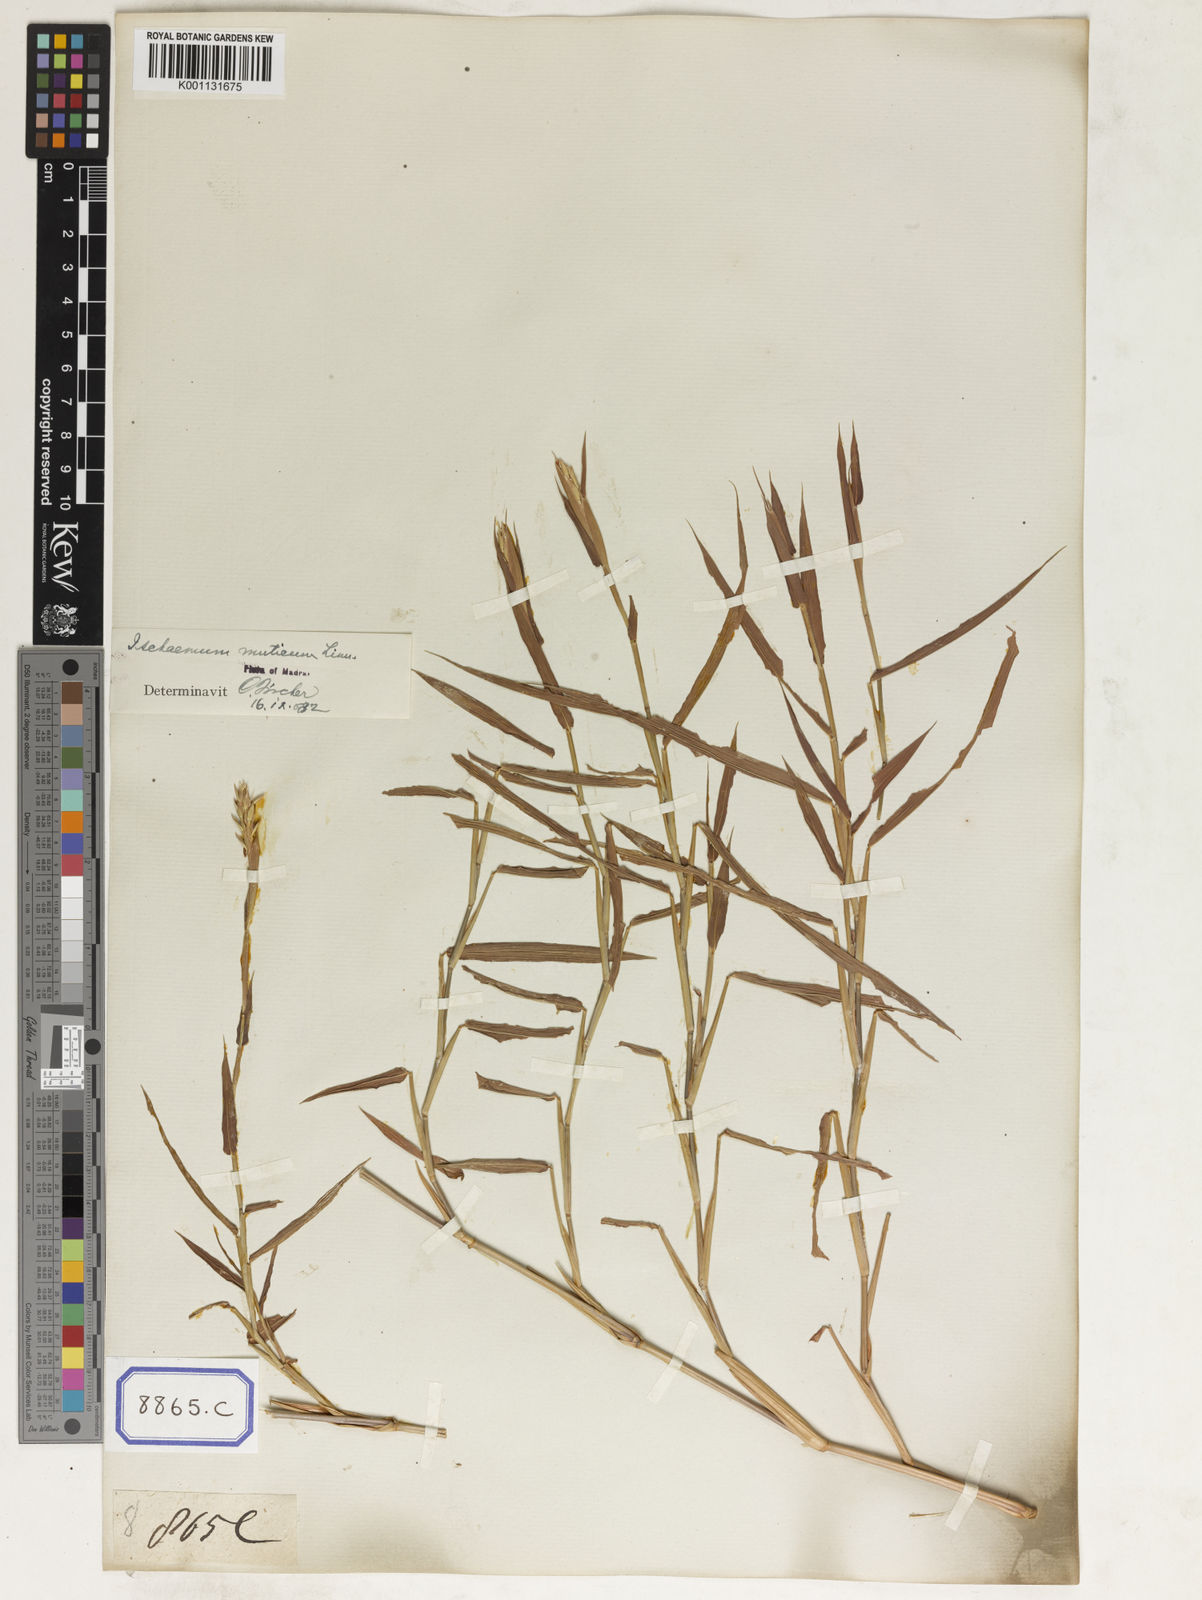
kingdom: Plantae
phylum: Tracheophyta
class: Liliopsida
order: Poales
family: Poaceae
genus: Ischaemum
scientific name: Ischaemum muticum
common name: Drought grass
